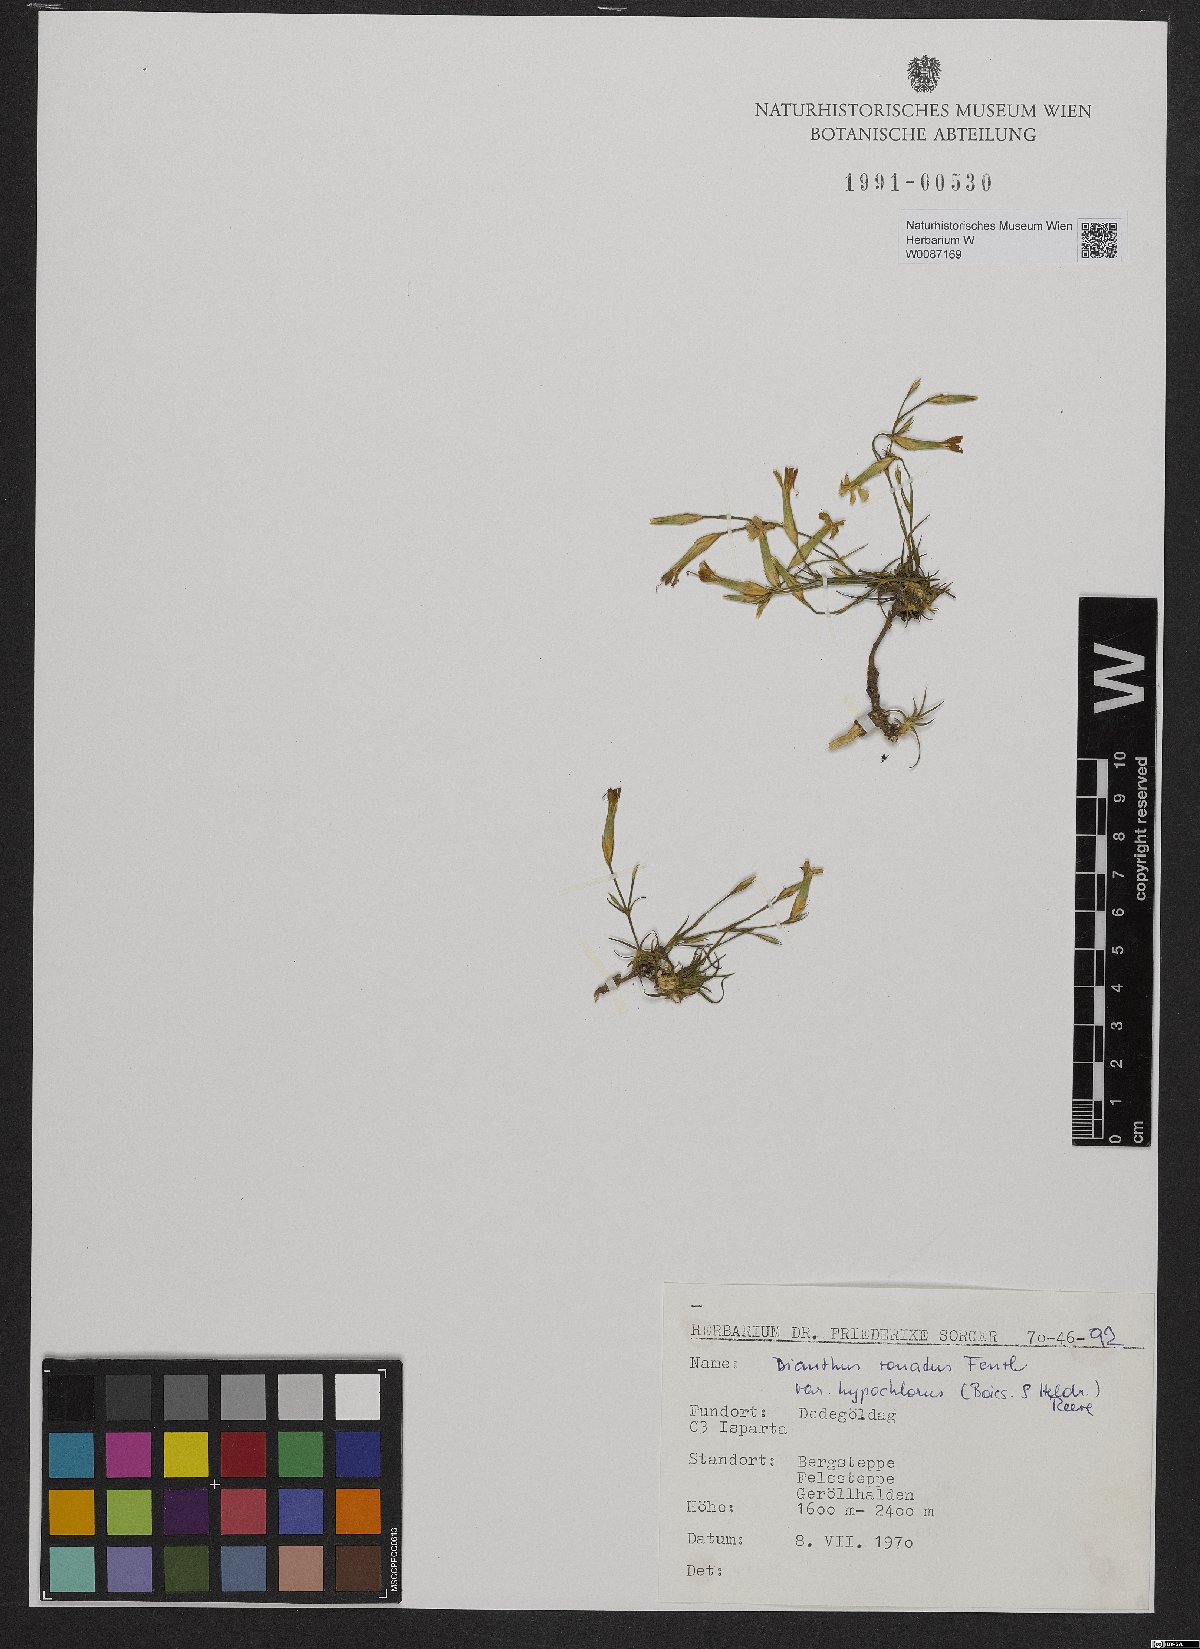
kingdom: Plantae
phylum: Tracheophyta
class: Magnoliopsida
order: Caryophyllales
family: Caryophyllaceae
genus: Dianthus
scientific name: Dianthus zonatus
